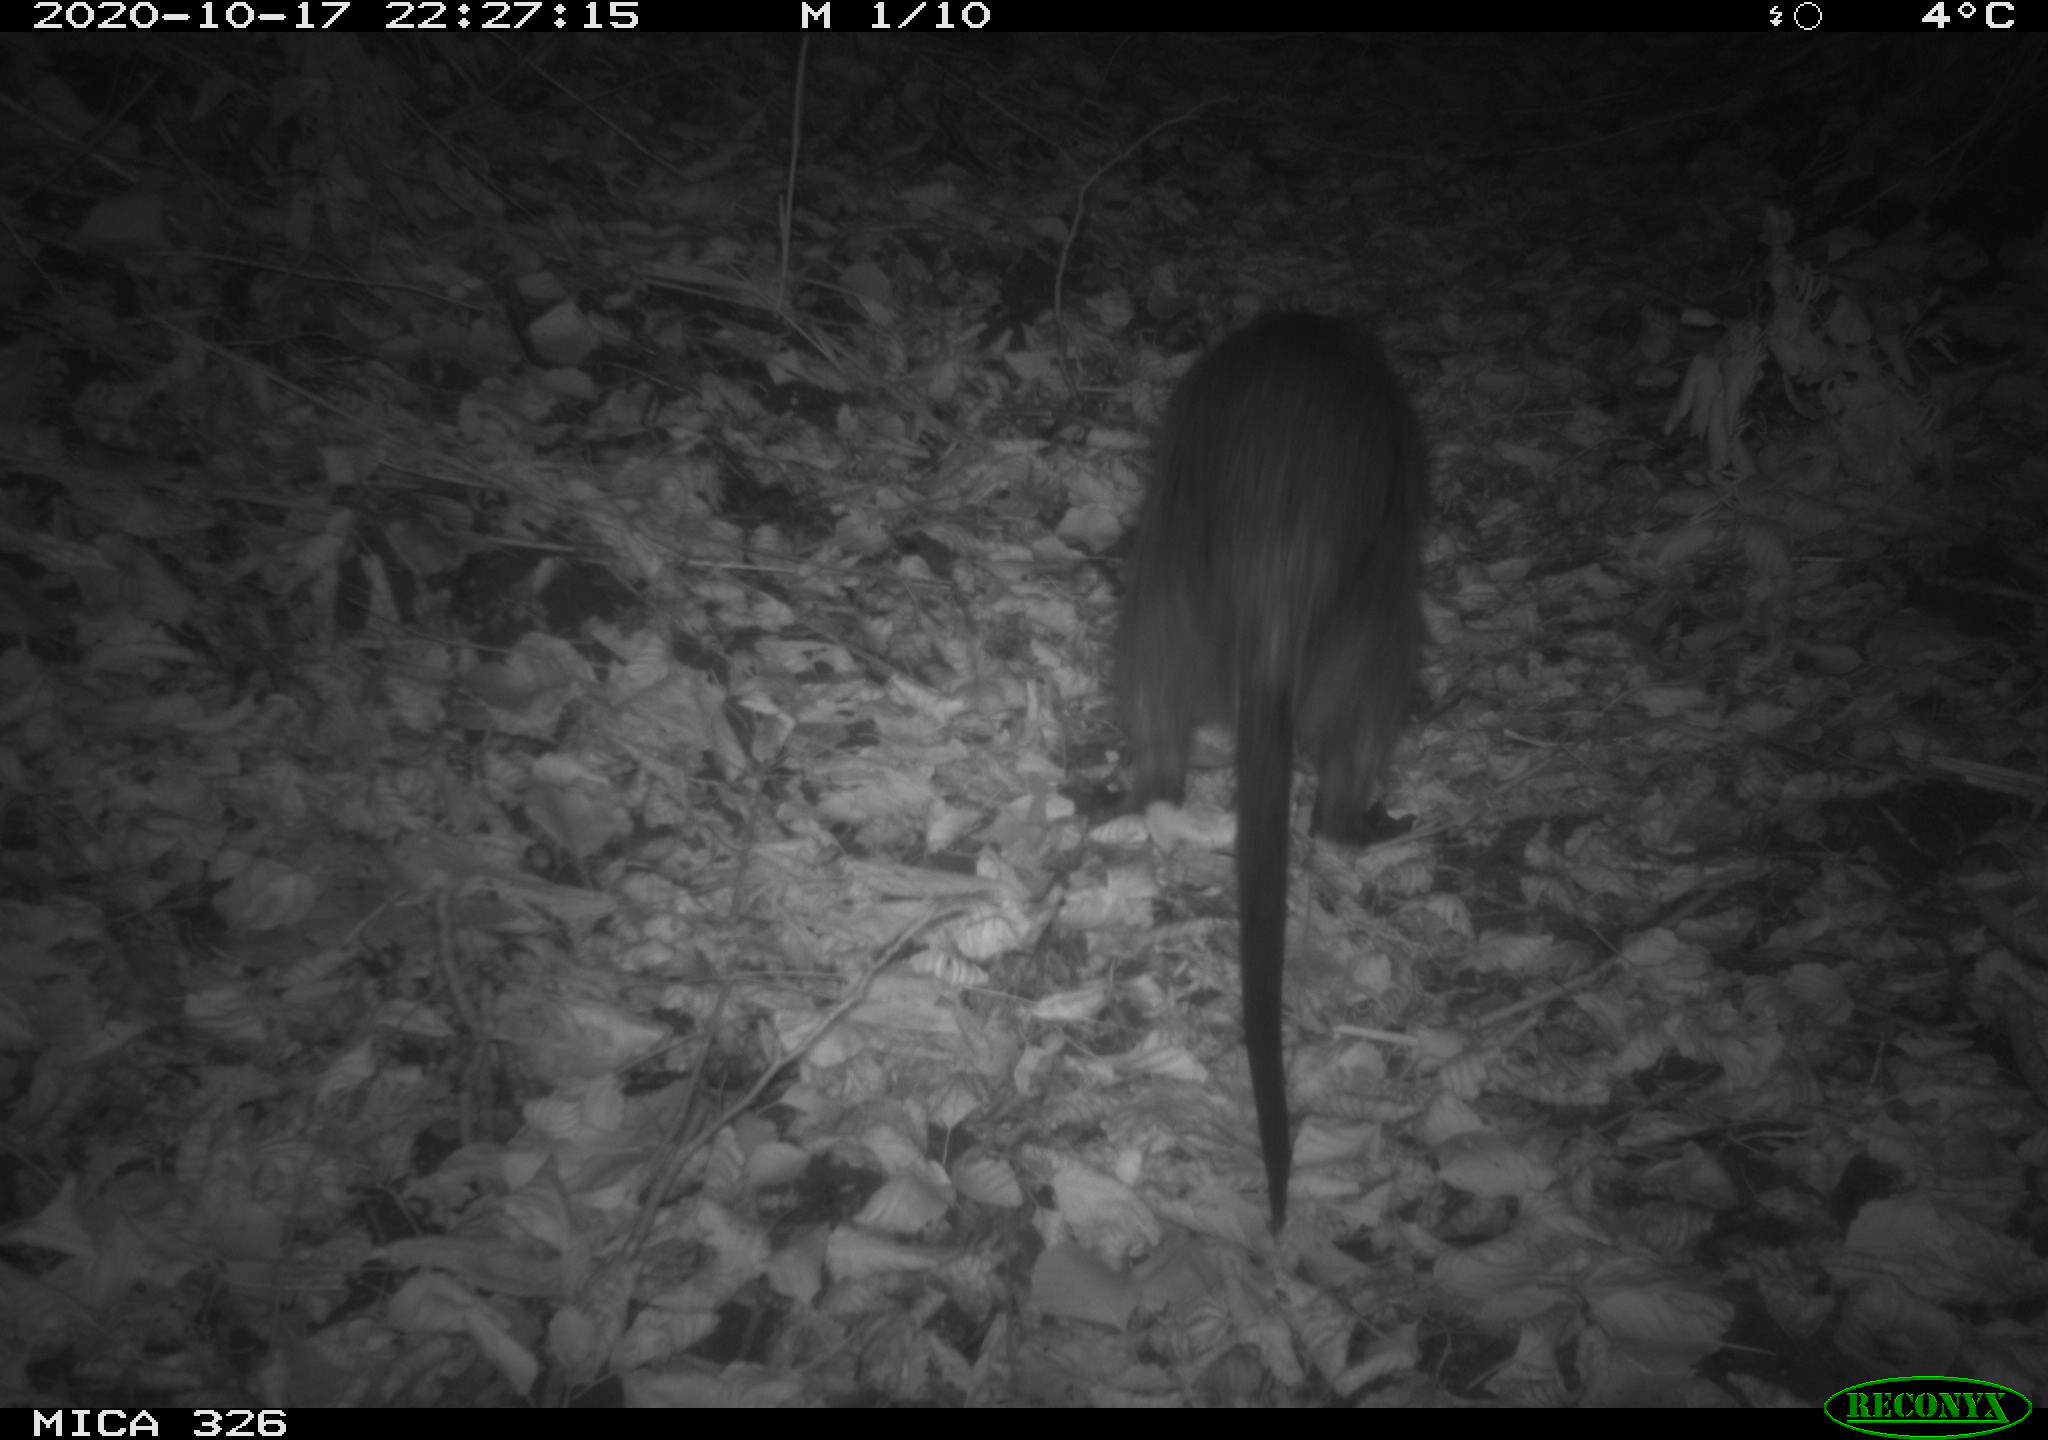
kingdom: Animalia
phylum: Chordata
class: Mammalia
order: Rodentia
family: Myocastoridae
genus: Myocastor
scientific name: Myocastor coypus
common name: Coypu
